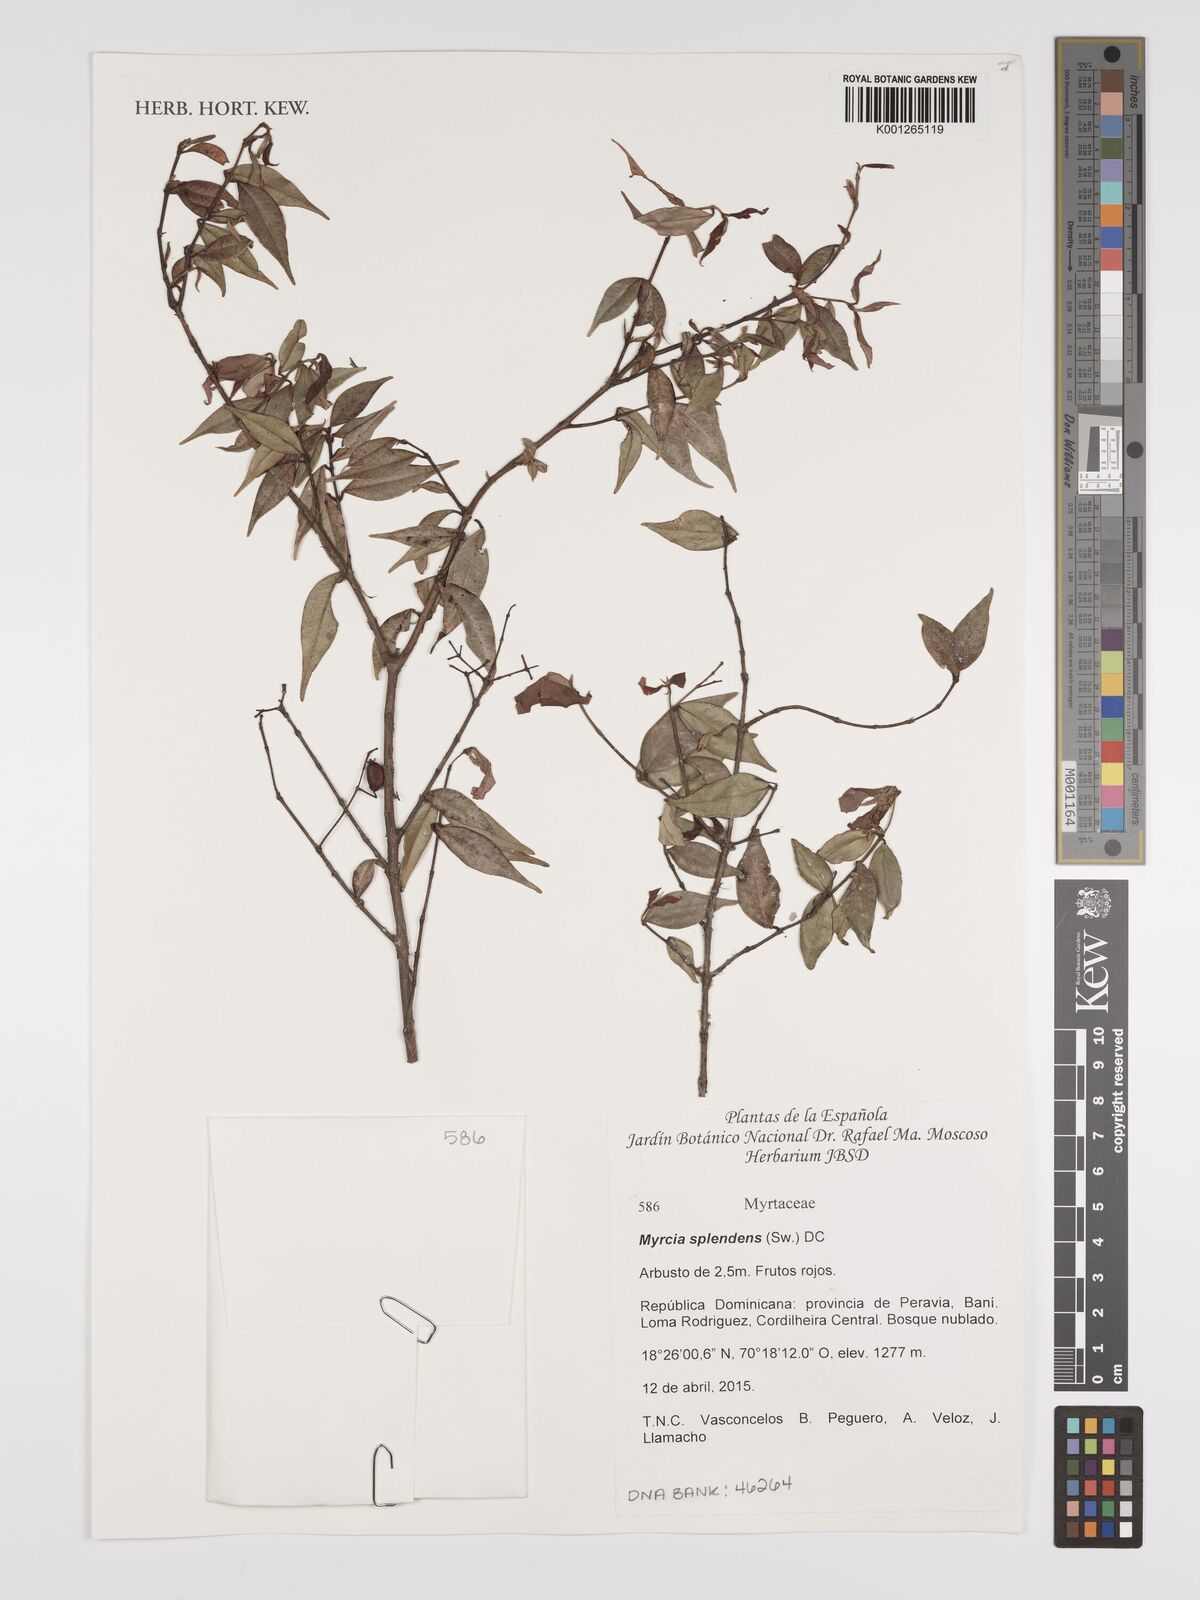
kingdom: Plantae
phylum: Tracheophyta
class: Magnoliopsida
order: Myrtales
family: Myrtaceae
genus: Myrcia
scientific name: Myrcia splendens
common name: Surinam cherry
